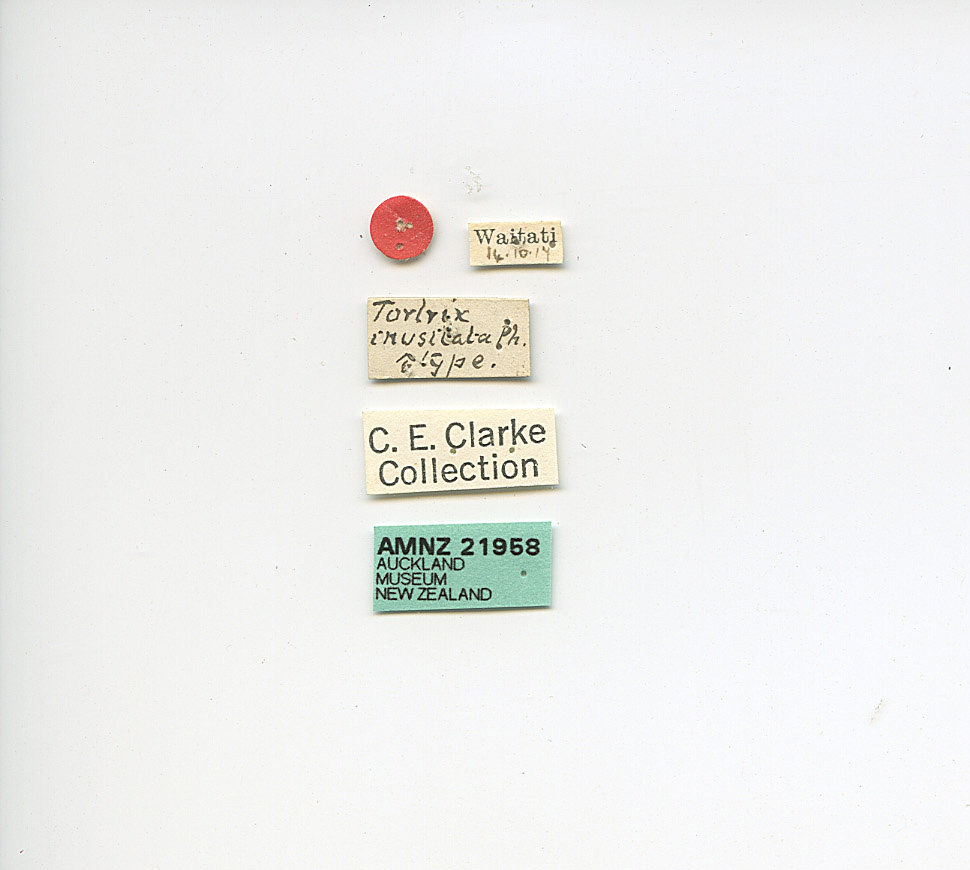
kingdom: Animalia
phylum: Arthropoda
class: Insecta
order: Lepidoptera
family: Tortricidae
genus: Apoctena
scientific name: Apoctena flavescens
